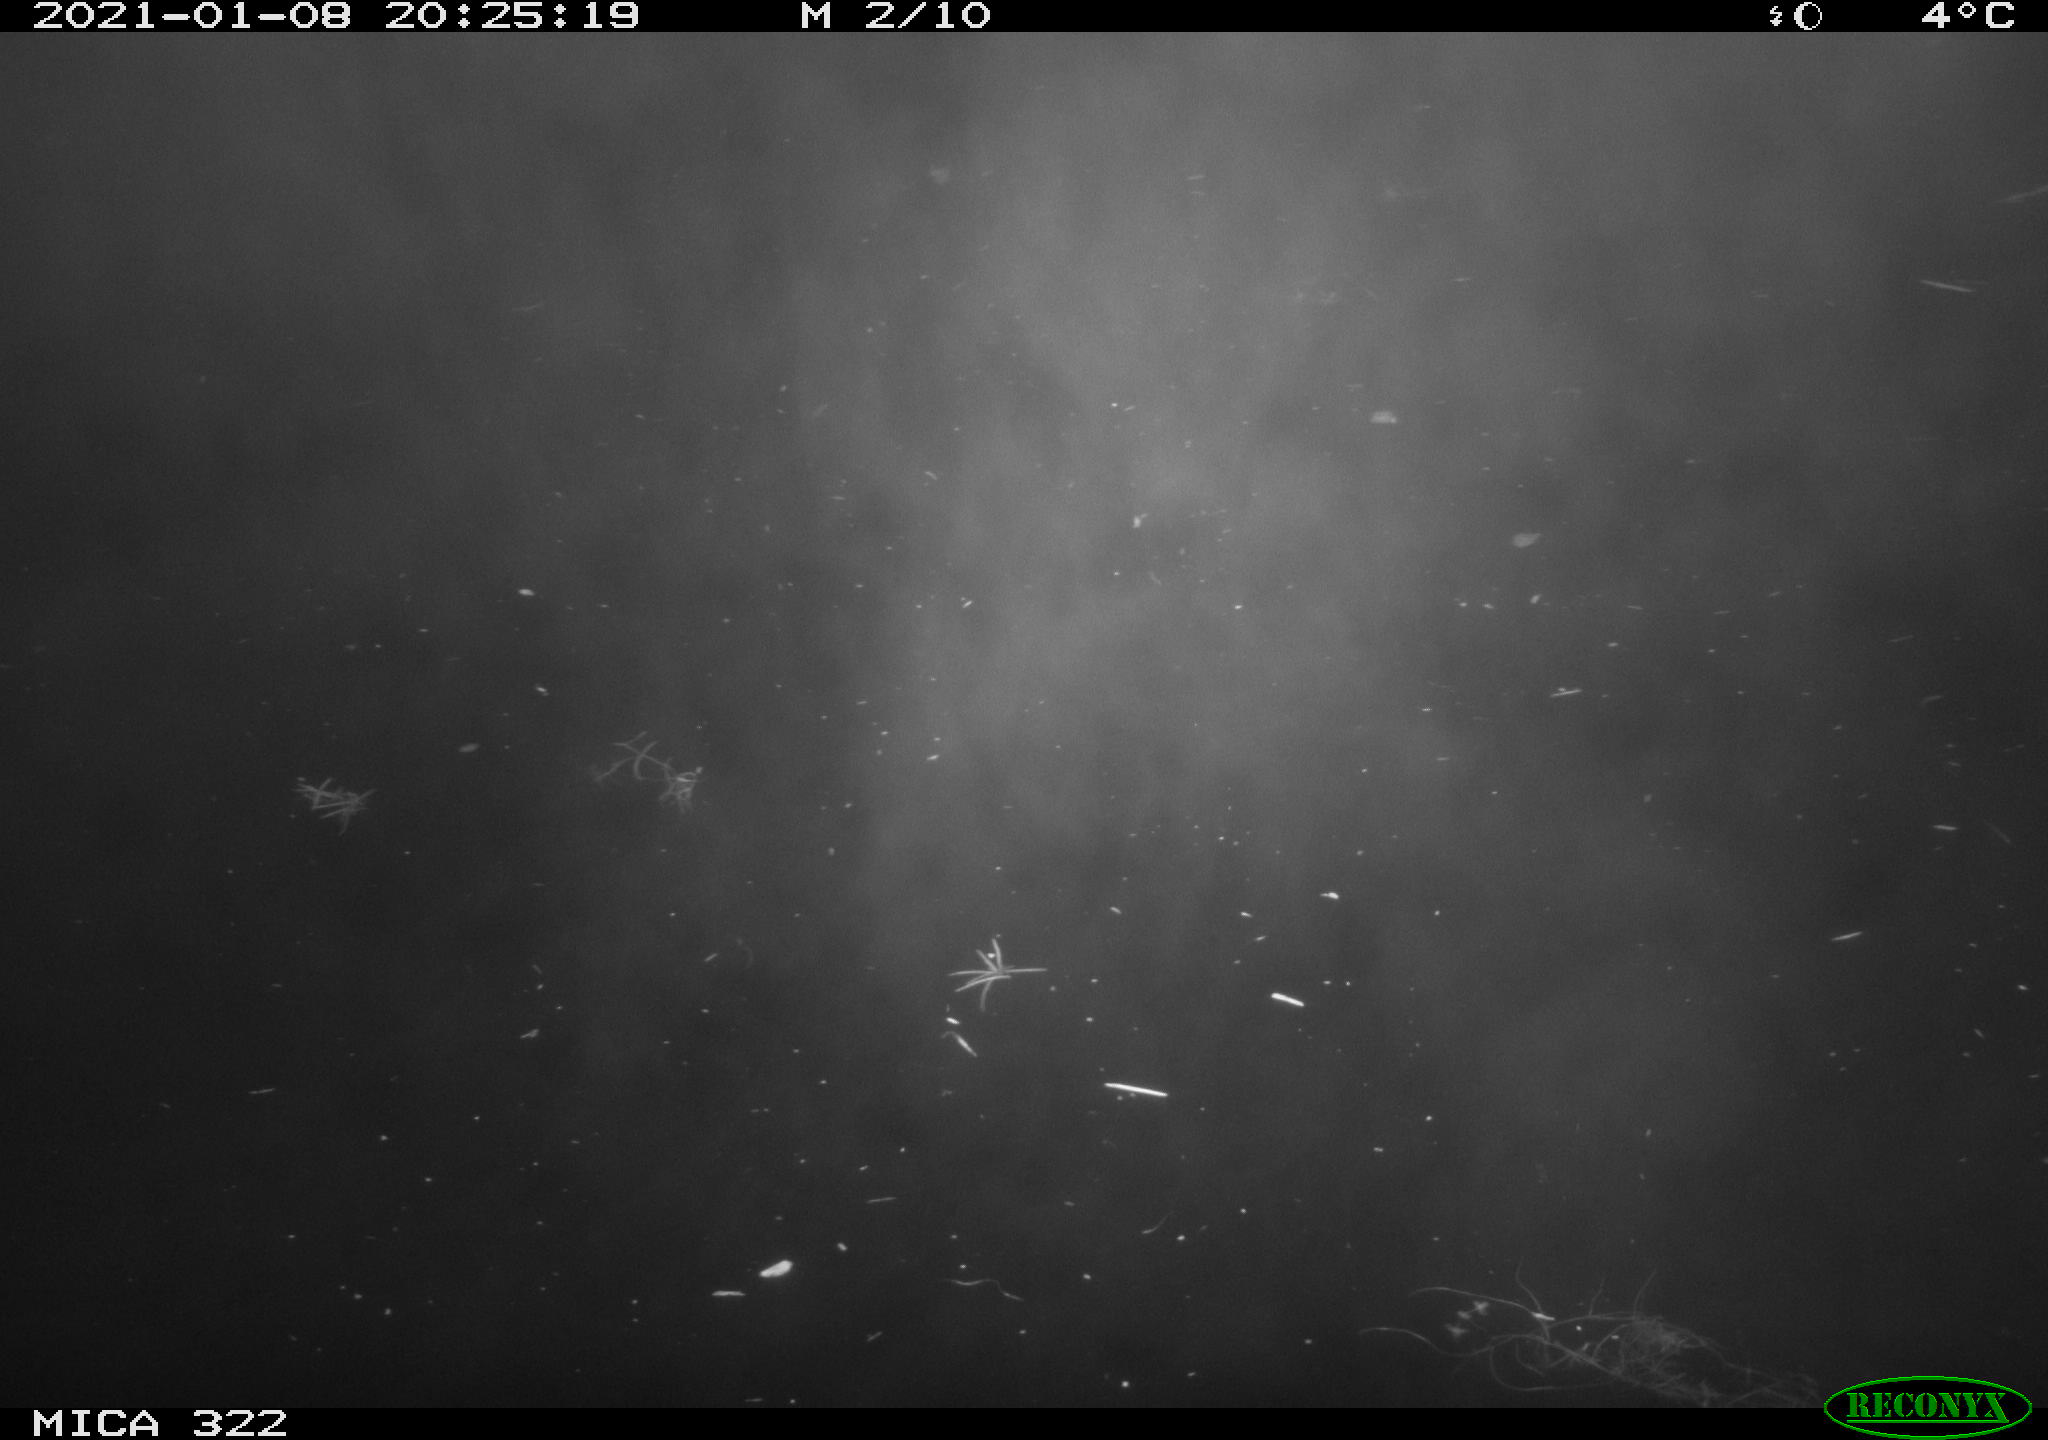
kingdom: Animalia
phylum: Chordata
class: Mammalia
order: Rodentia
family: Muridae
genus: Rattus
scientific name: Rattus norvegicus
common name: Brown rat
